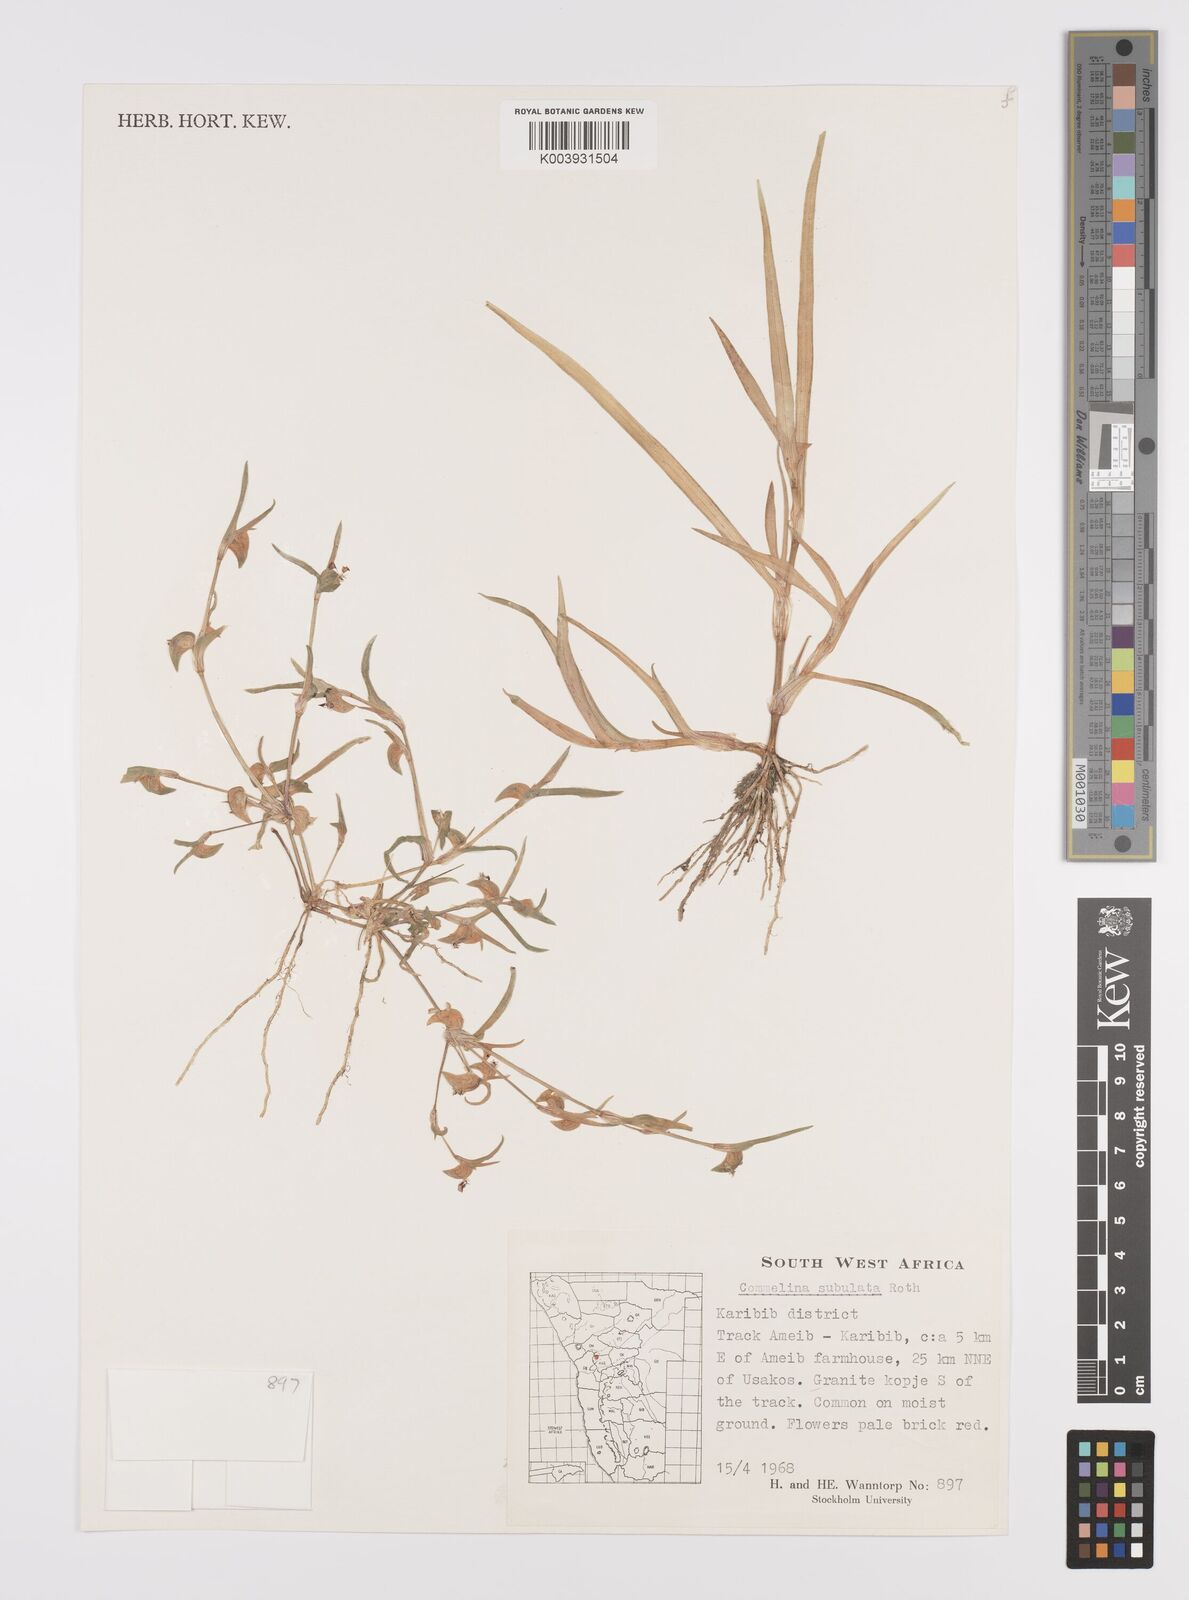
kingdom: Plantae
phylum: Tracheophyta
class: Liliopsida
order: Commelinales
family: Commelinaceae
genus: Commelina
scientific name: Commelina subulata
